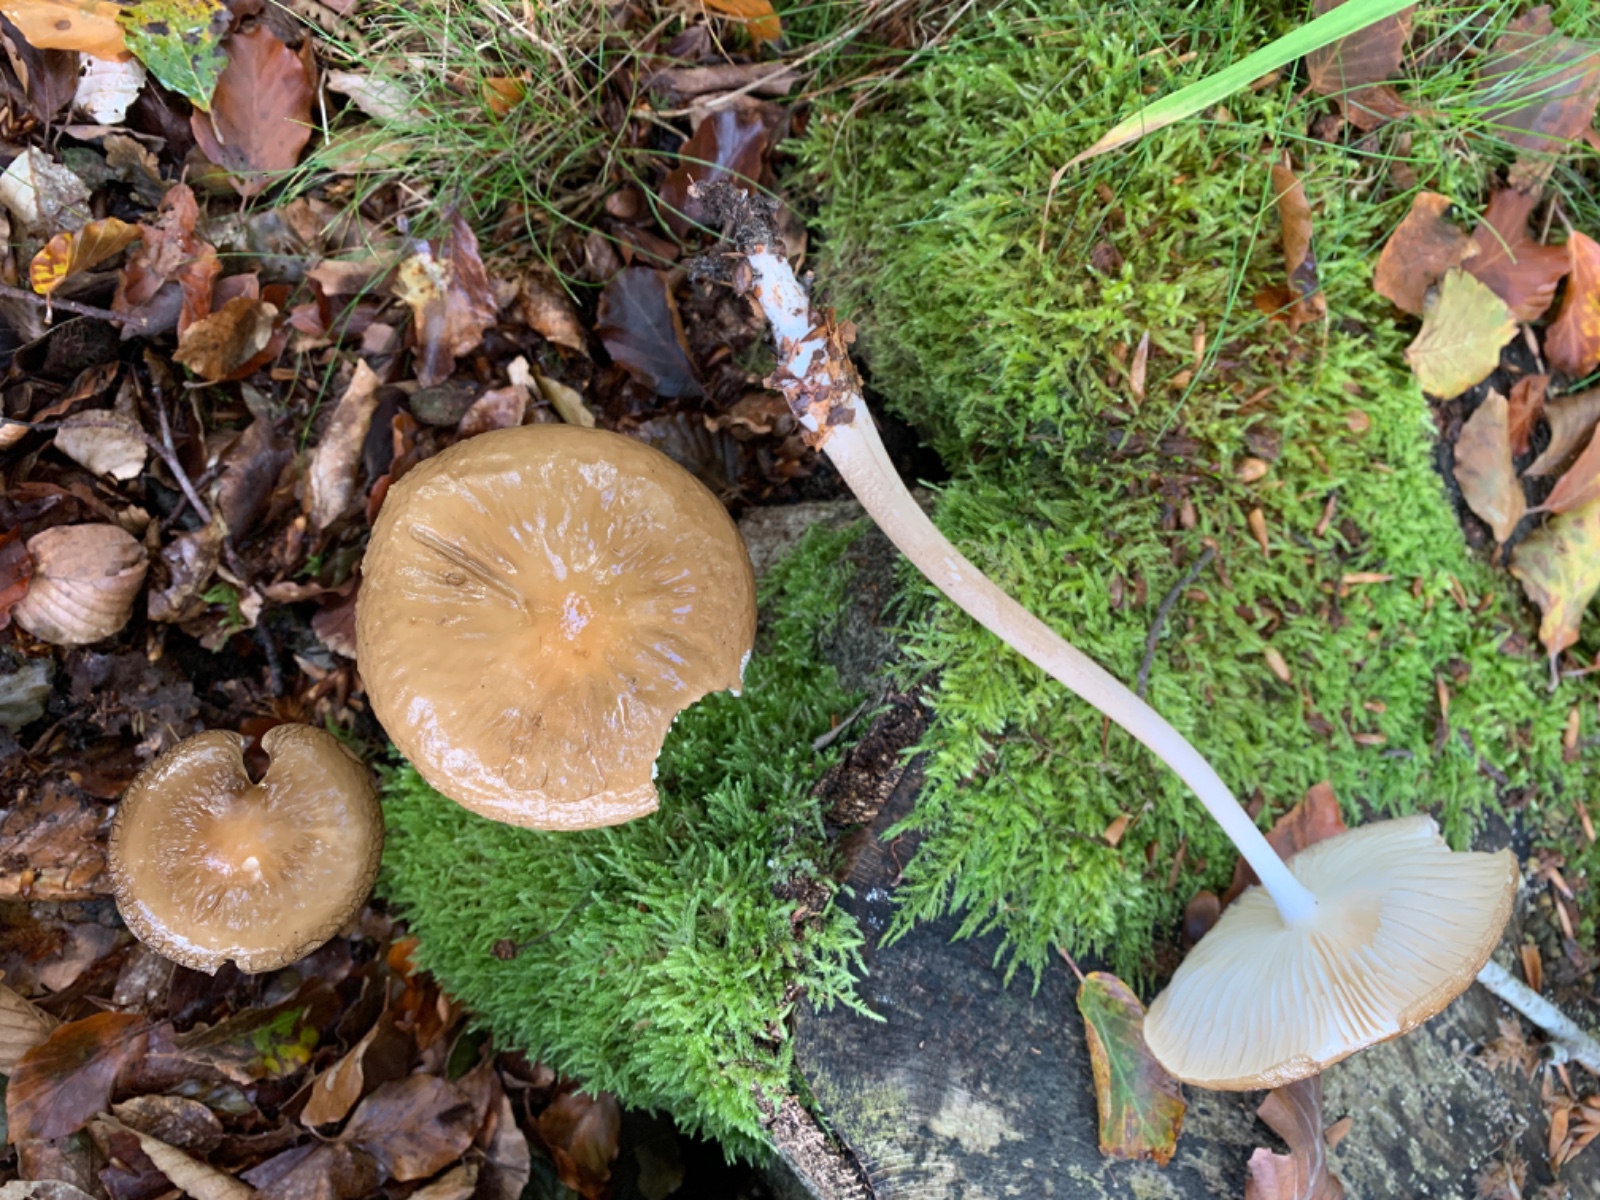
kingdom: Fungi
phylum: Basidiomycota
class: Agaricomycetes
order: Agaricales
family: Physalacriaceae
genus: Hymenopellis
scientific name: Hymenopellis radicata
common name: almindelig pælerodshat
